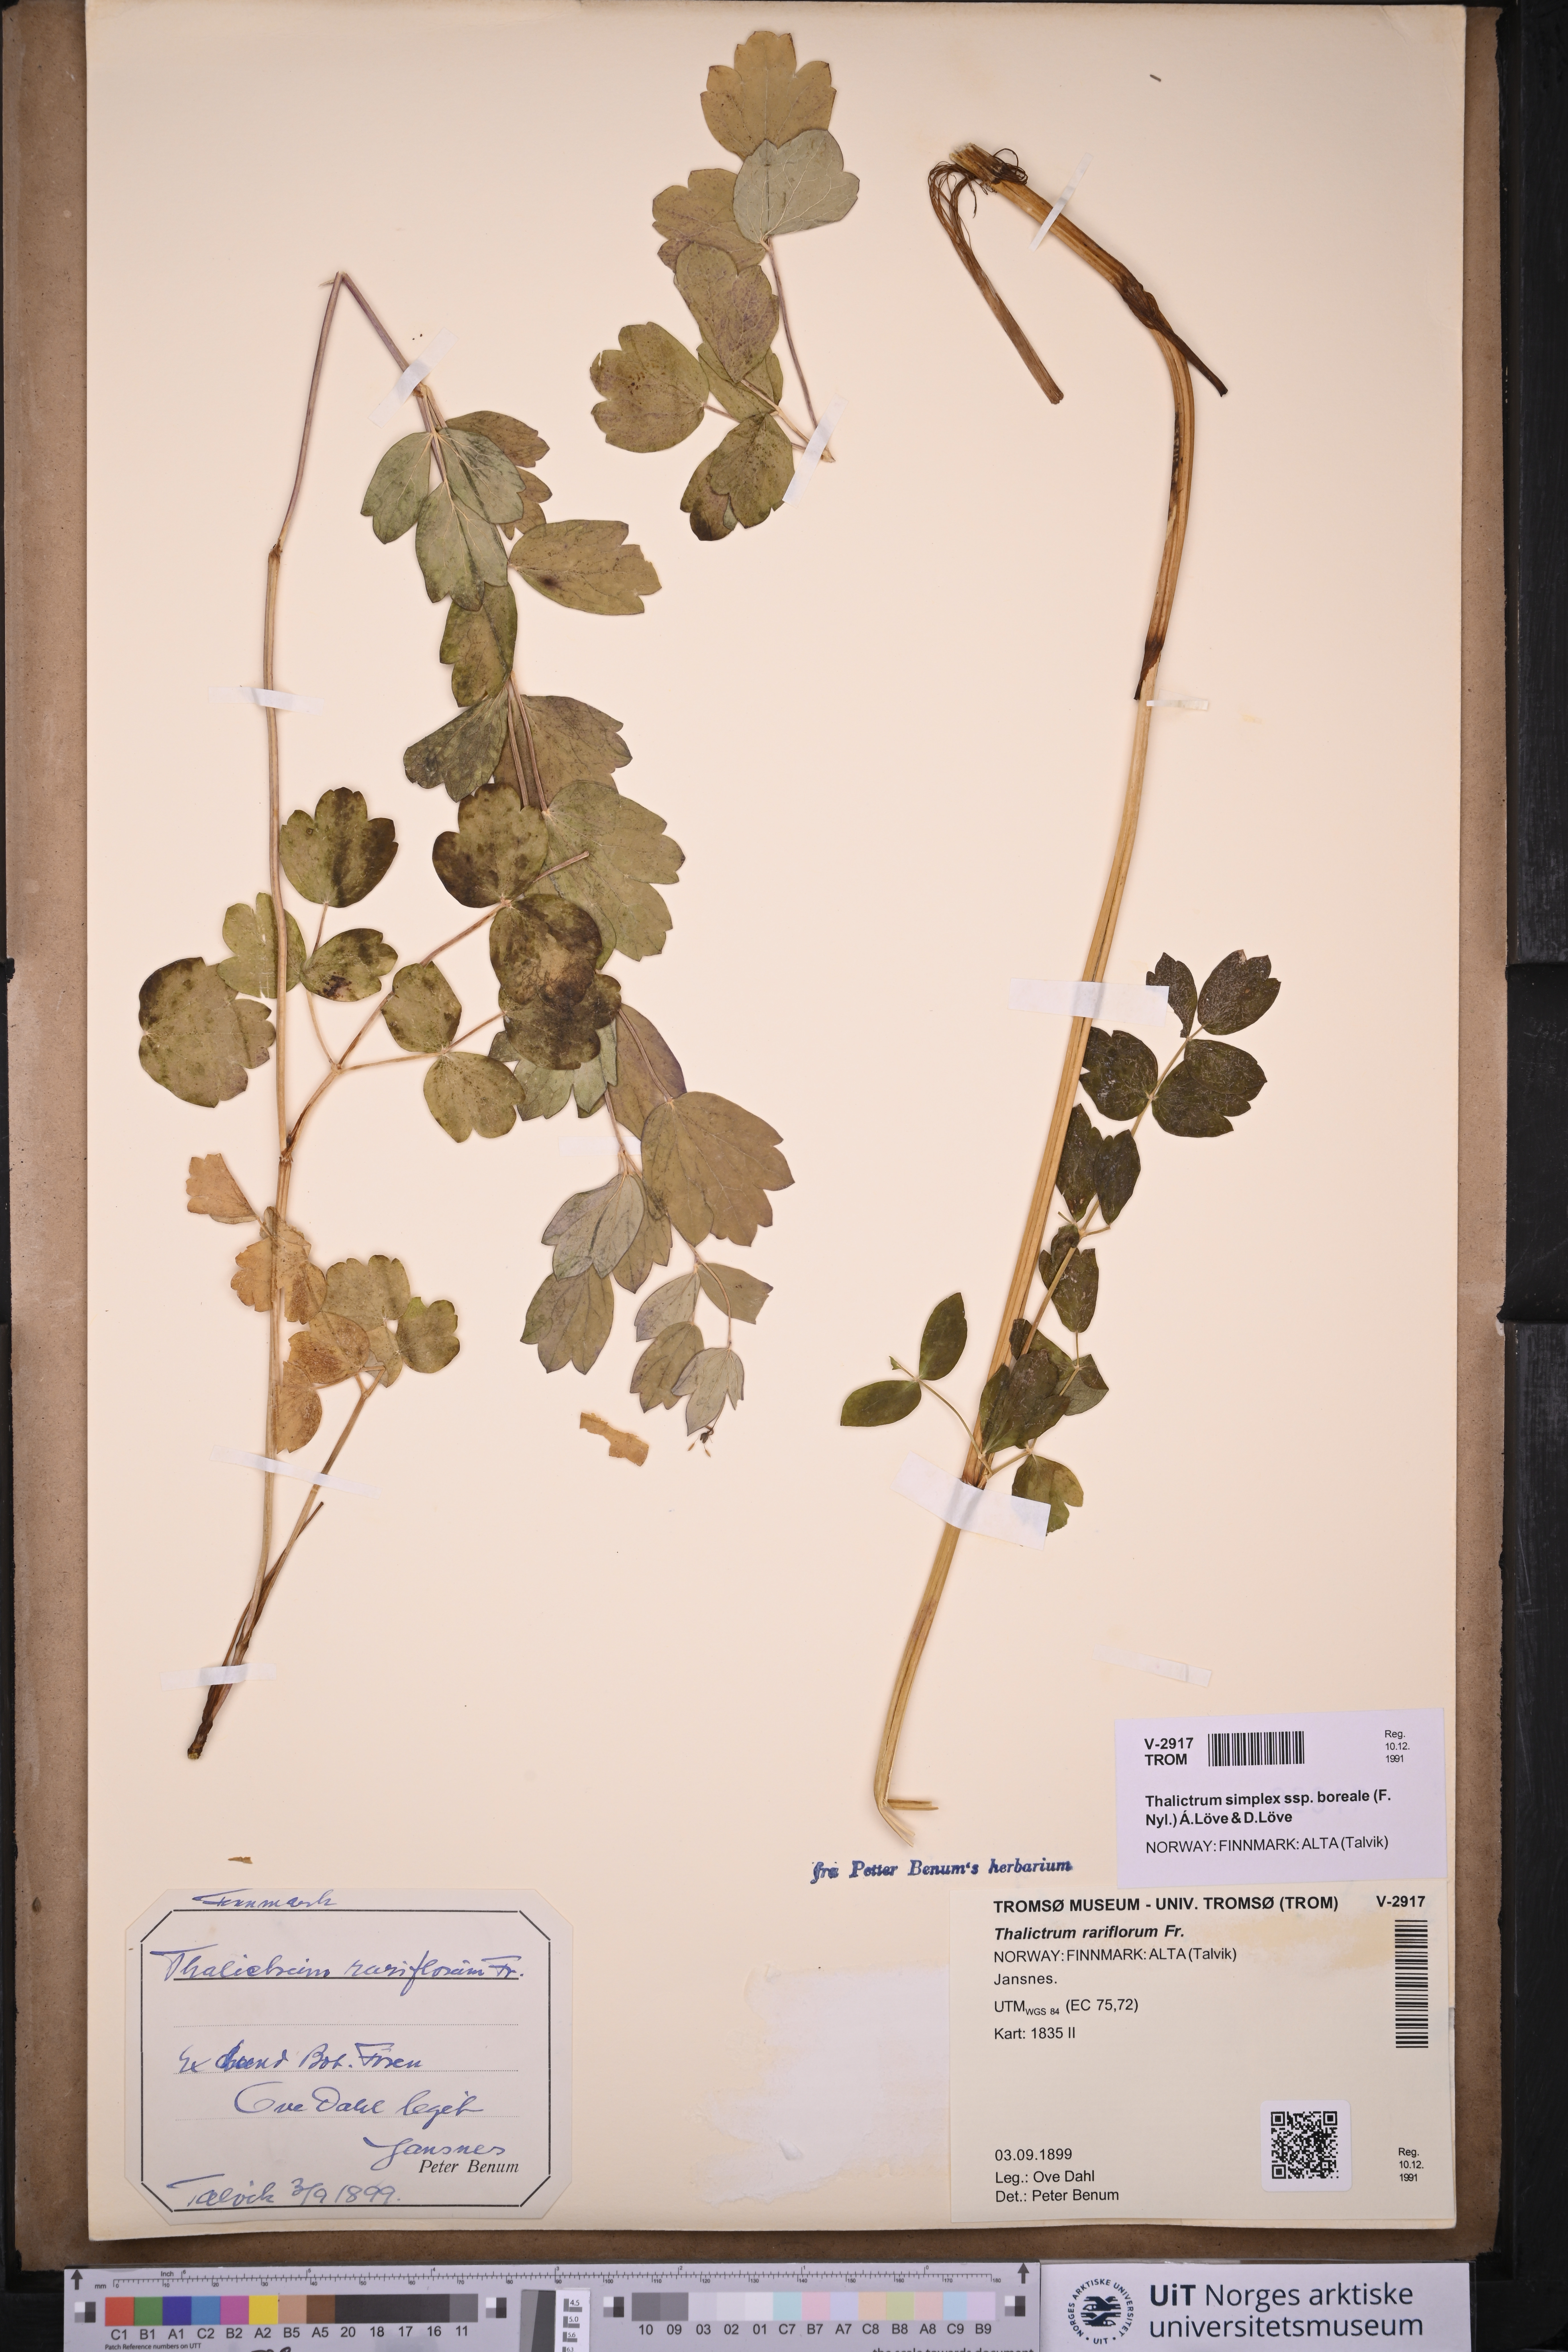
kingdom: Plantae
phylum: Tracheophyta
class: Magnoliopsida
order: Ranunculales
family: Ranunculaceae
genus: Thalictrum
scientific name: Thalictrum simplex
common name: Small meadow-rue
